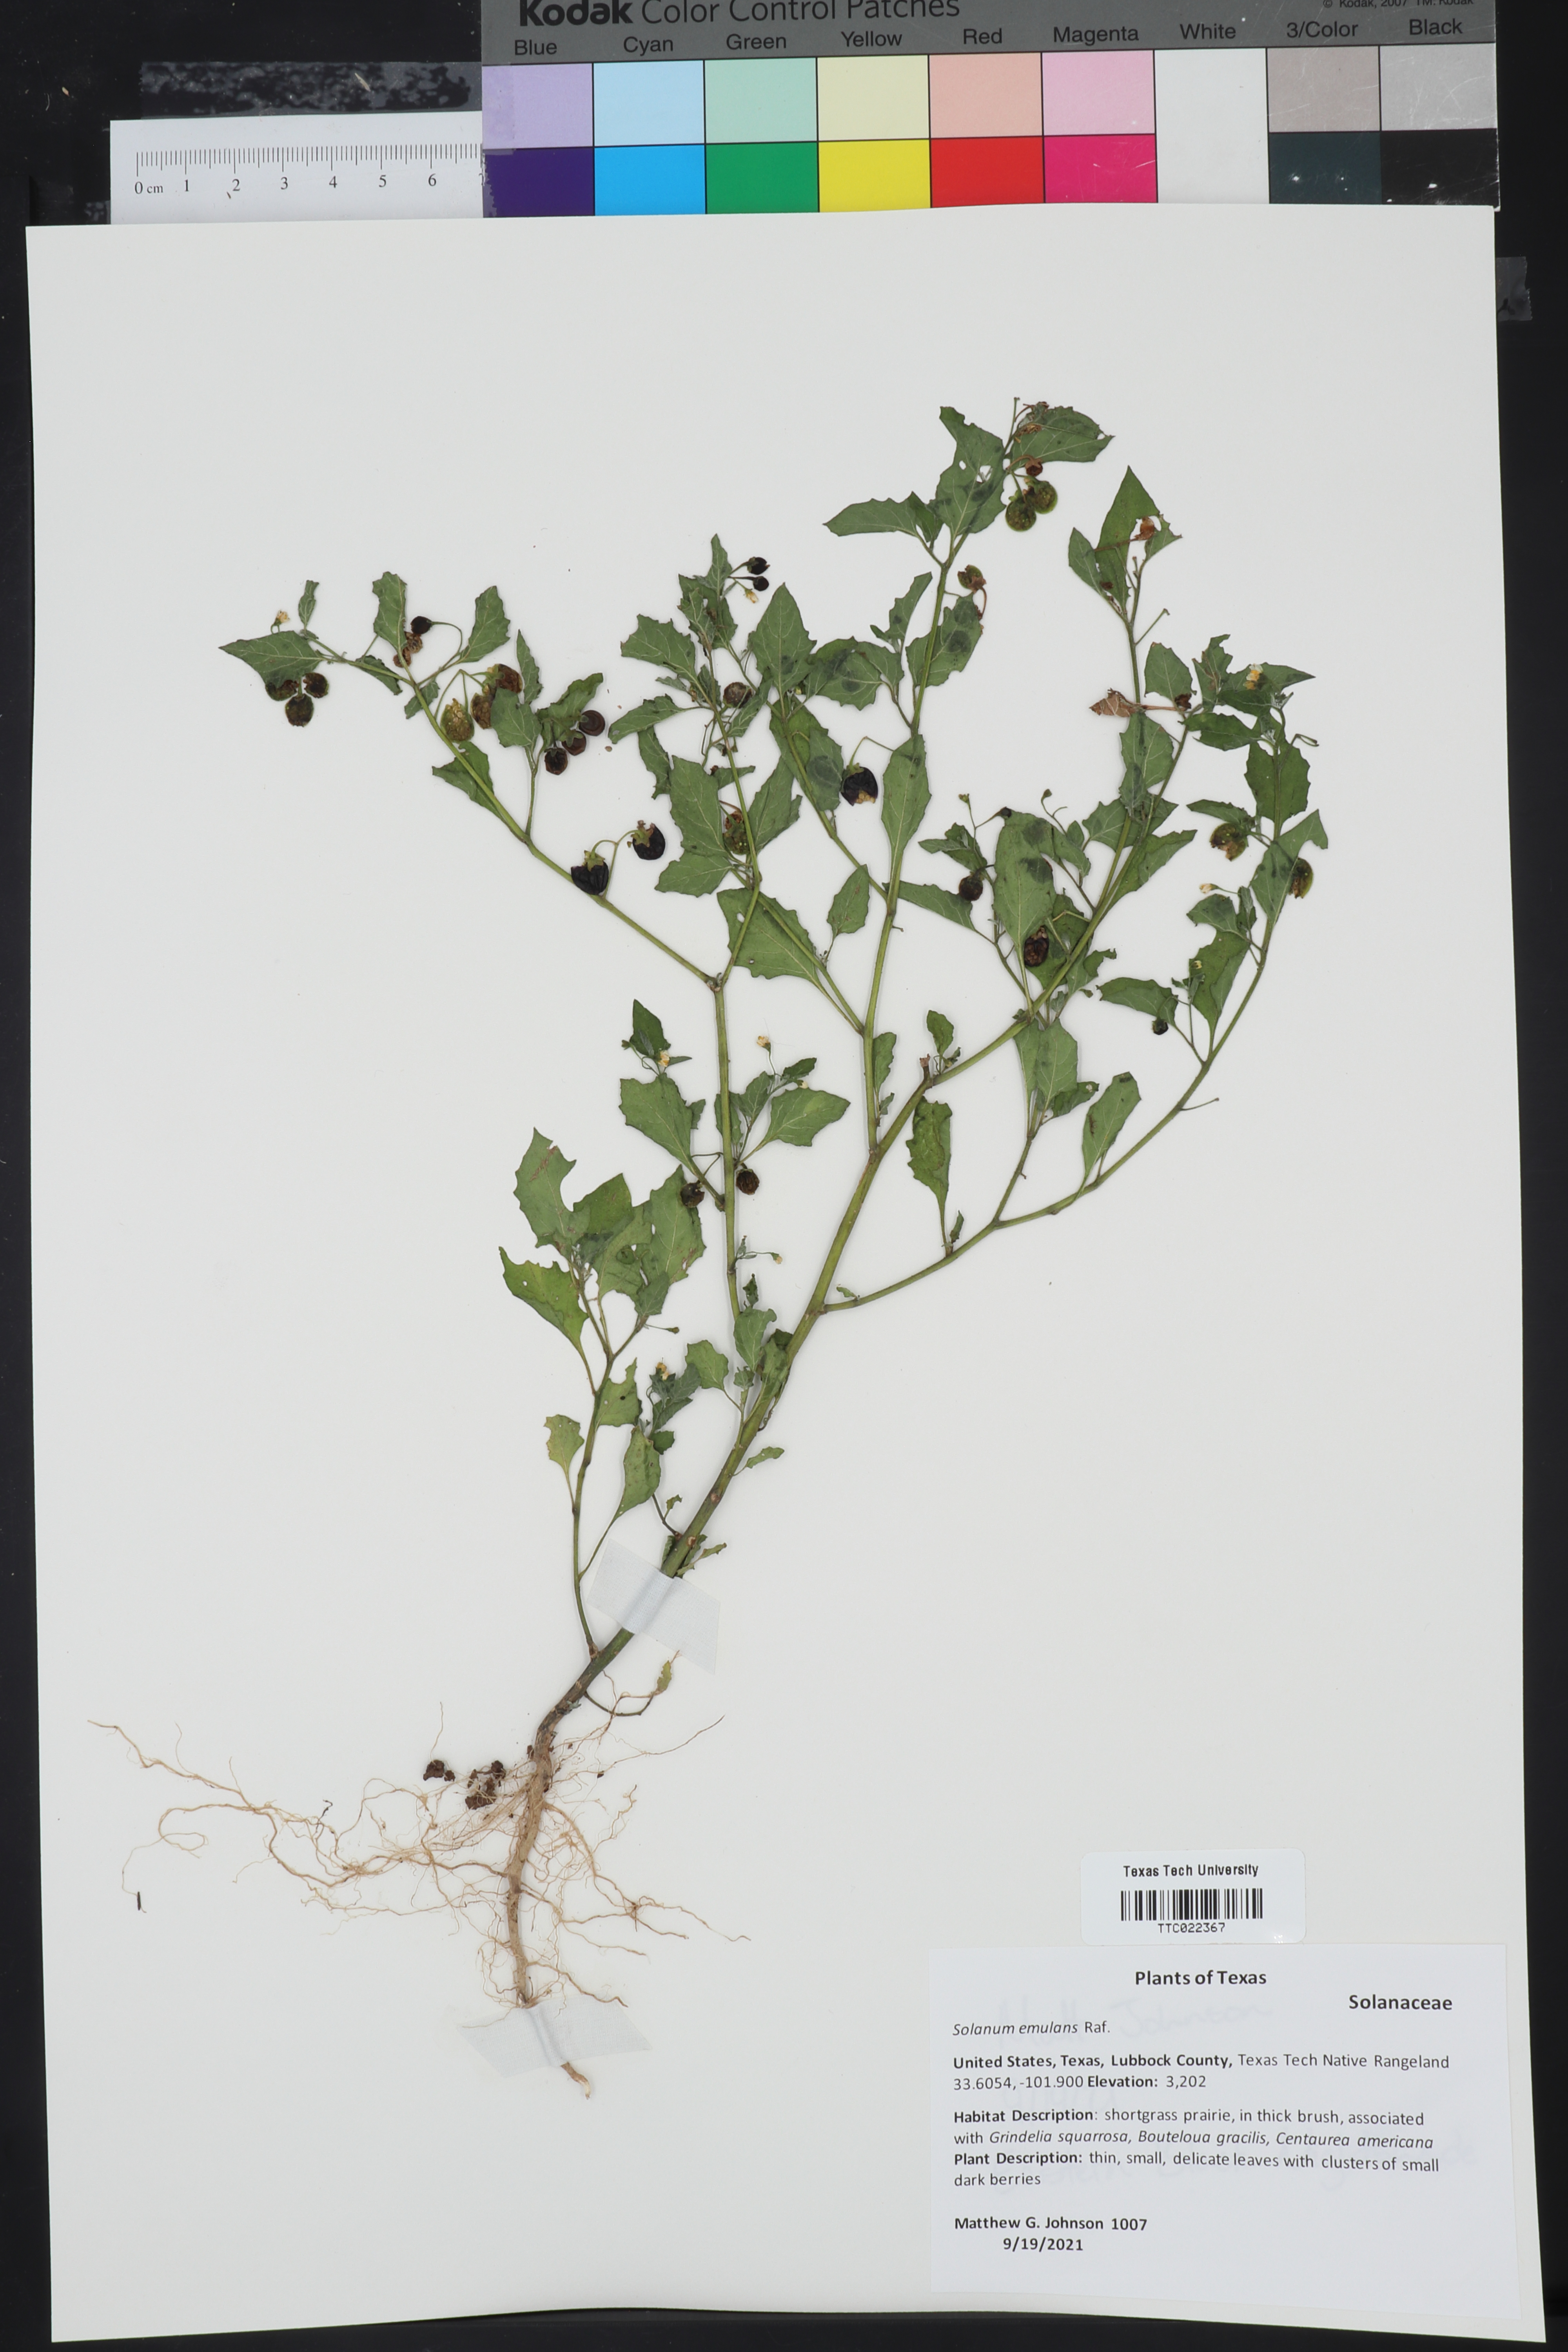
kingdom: Plantae
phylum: Tracheophyta
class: Magnoliopsida
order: Solanales
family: Solanaceae
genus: Solanum
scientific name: Solanum emulans
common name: Eastern black nightshade
